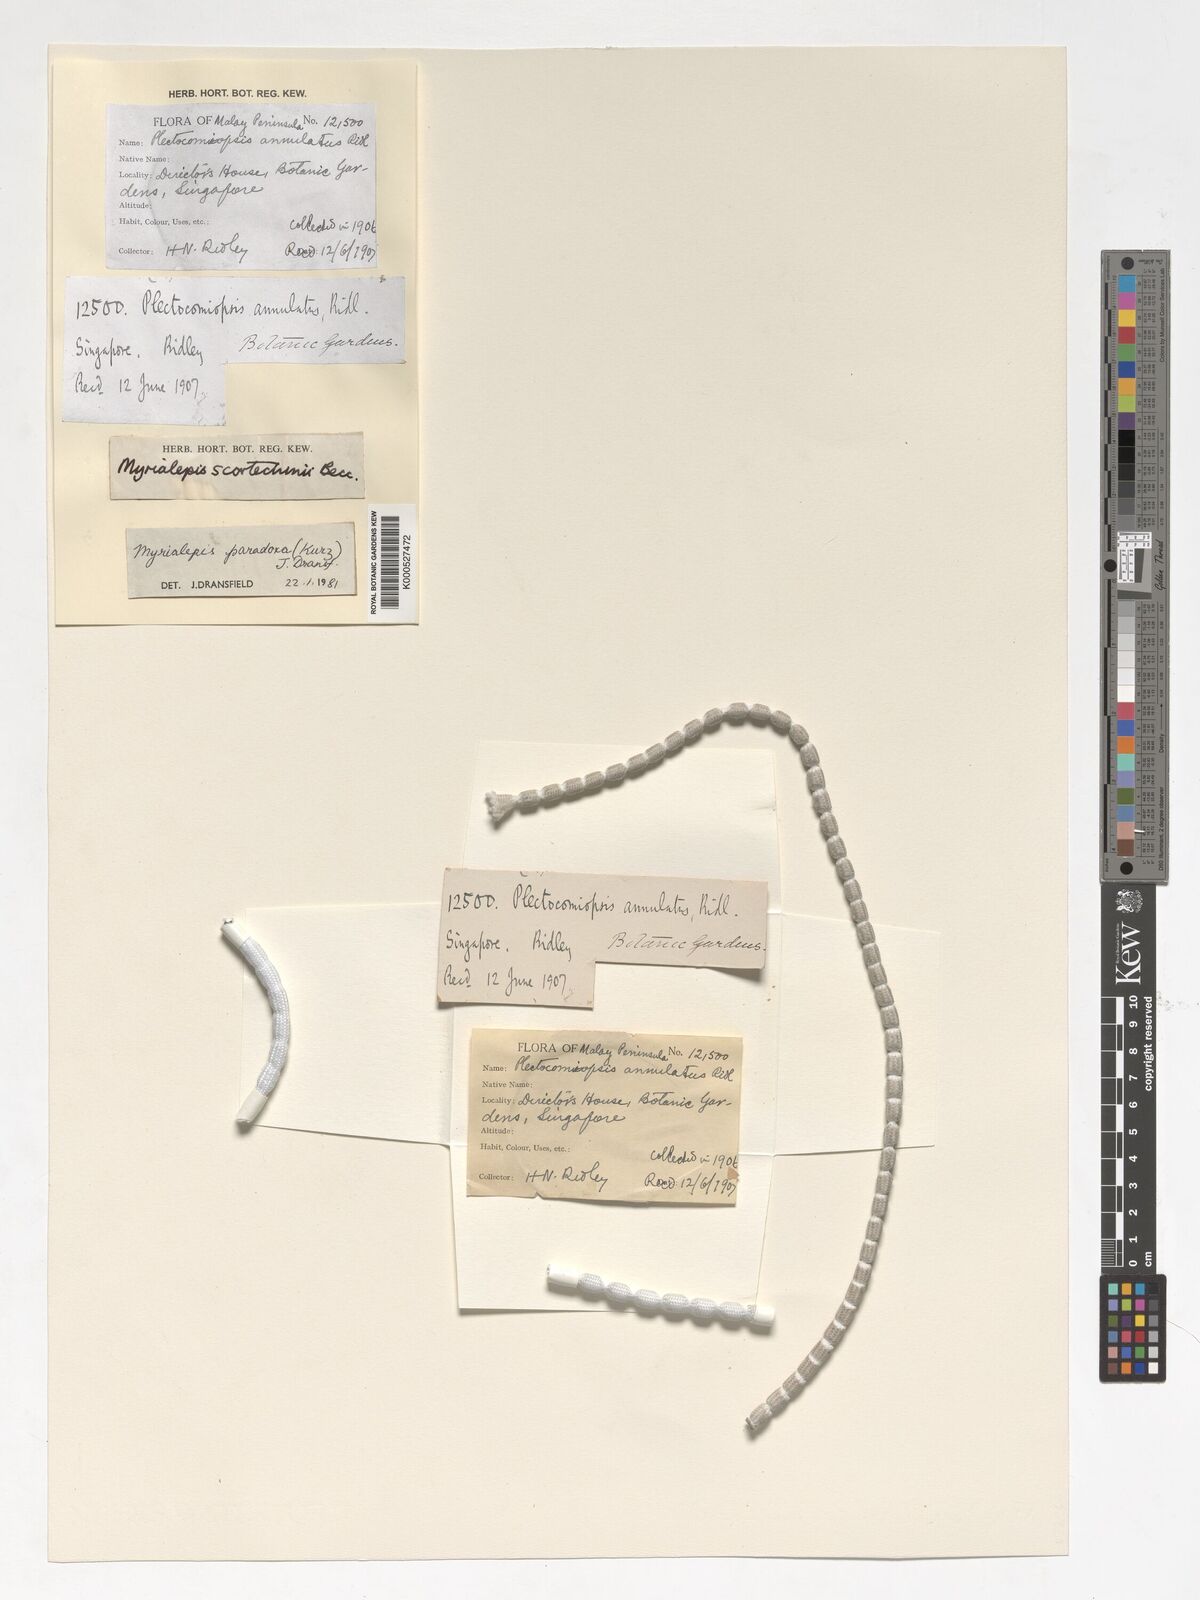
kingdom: Plantae
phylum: Tracheophyta
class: Liliopsida
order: Arecales
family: Arecaceae
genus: Myrialepis
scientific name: Myrialepis paradoxa
